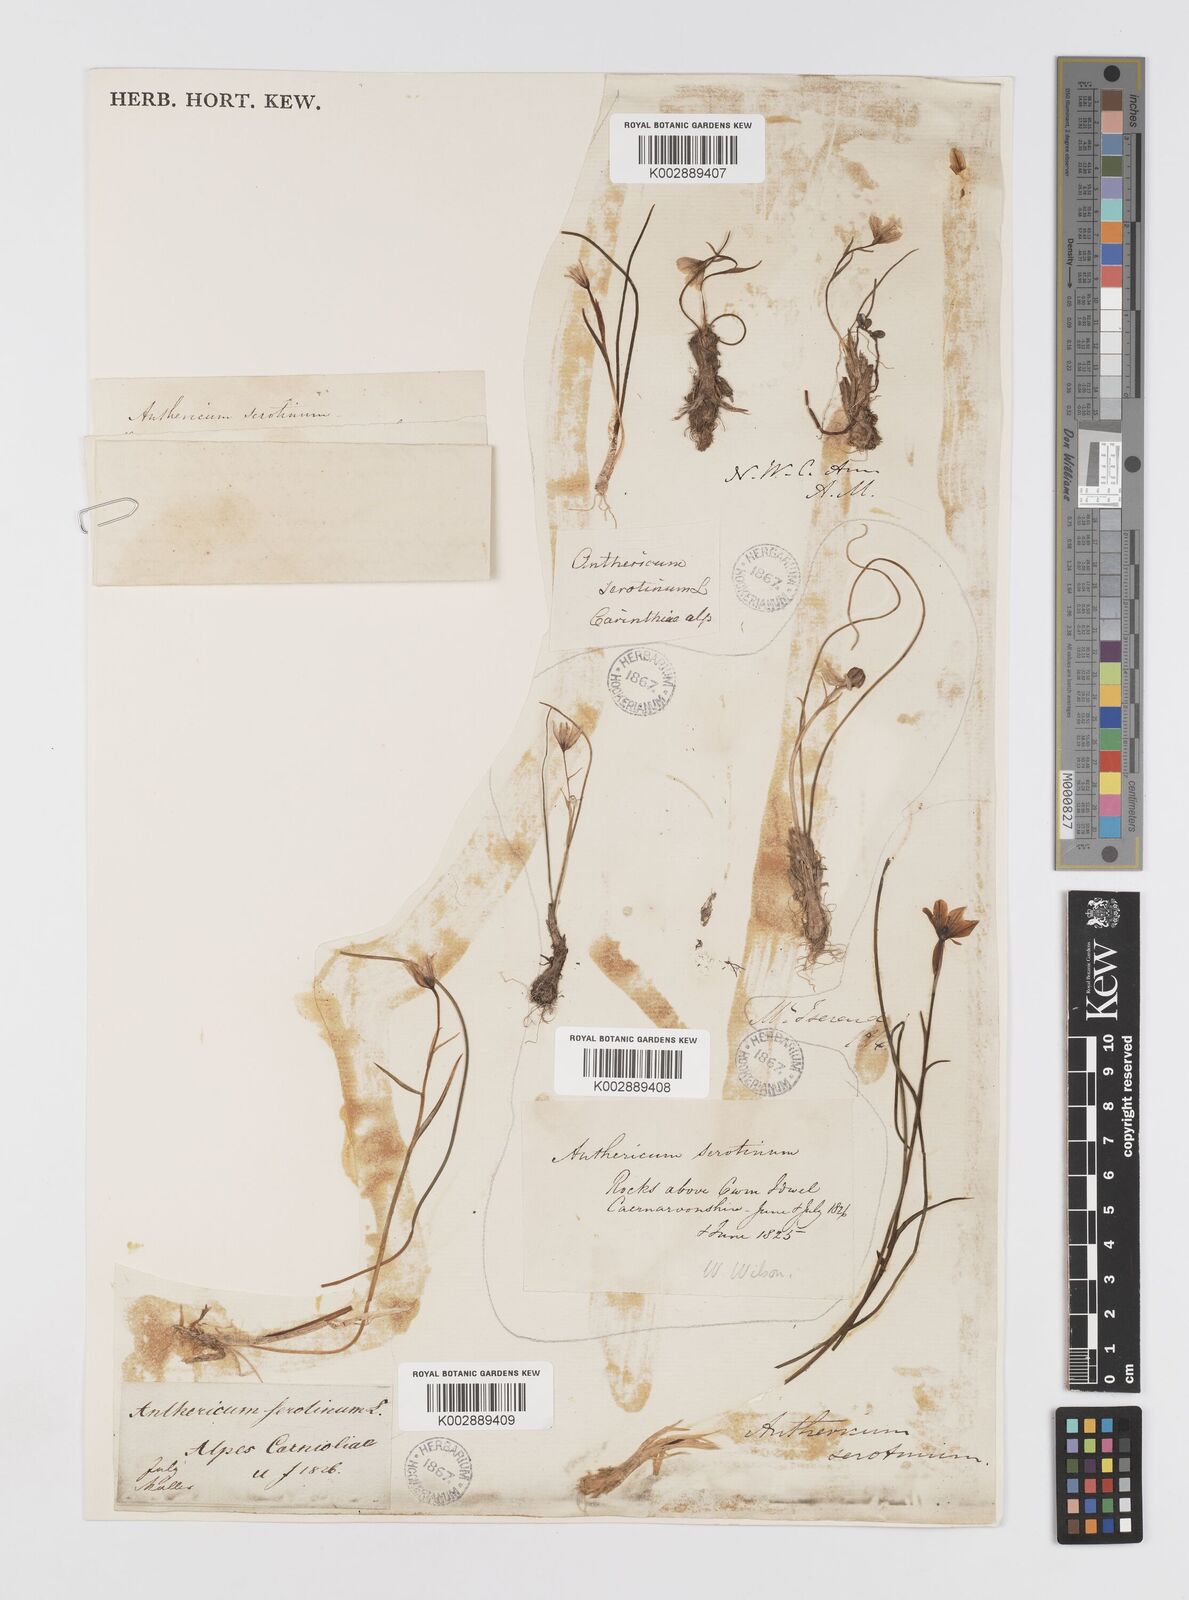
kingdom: Plantae
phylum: Tracheophyta
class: Liliopsida
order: Liliales
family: Liliaceae
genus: Gagea
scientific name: Gagea
